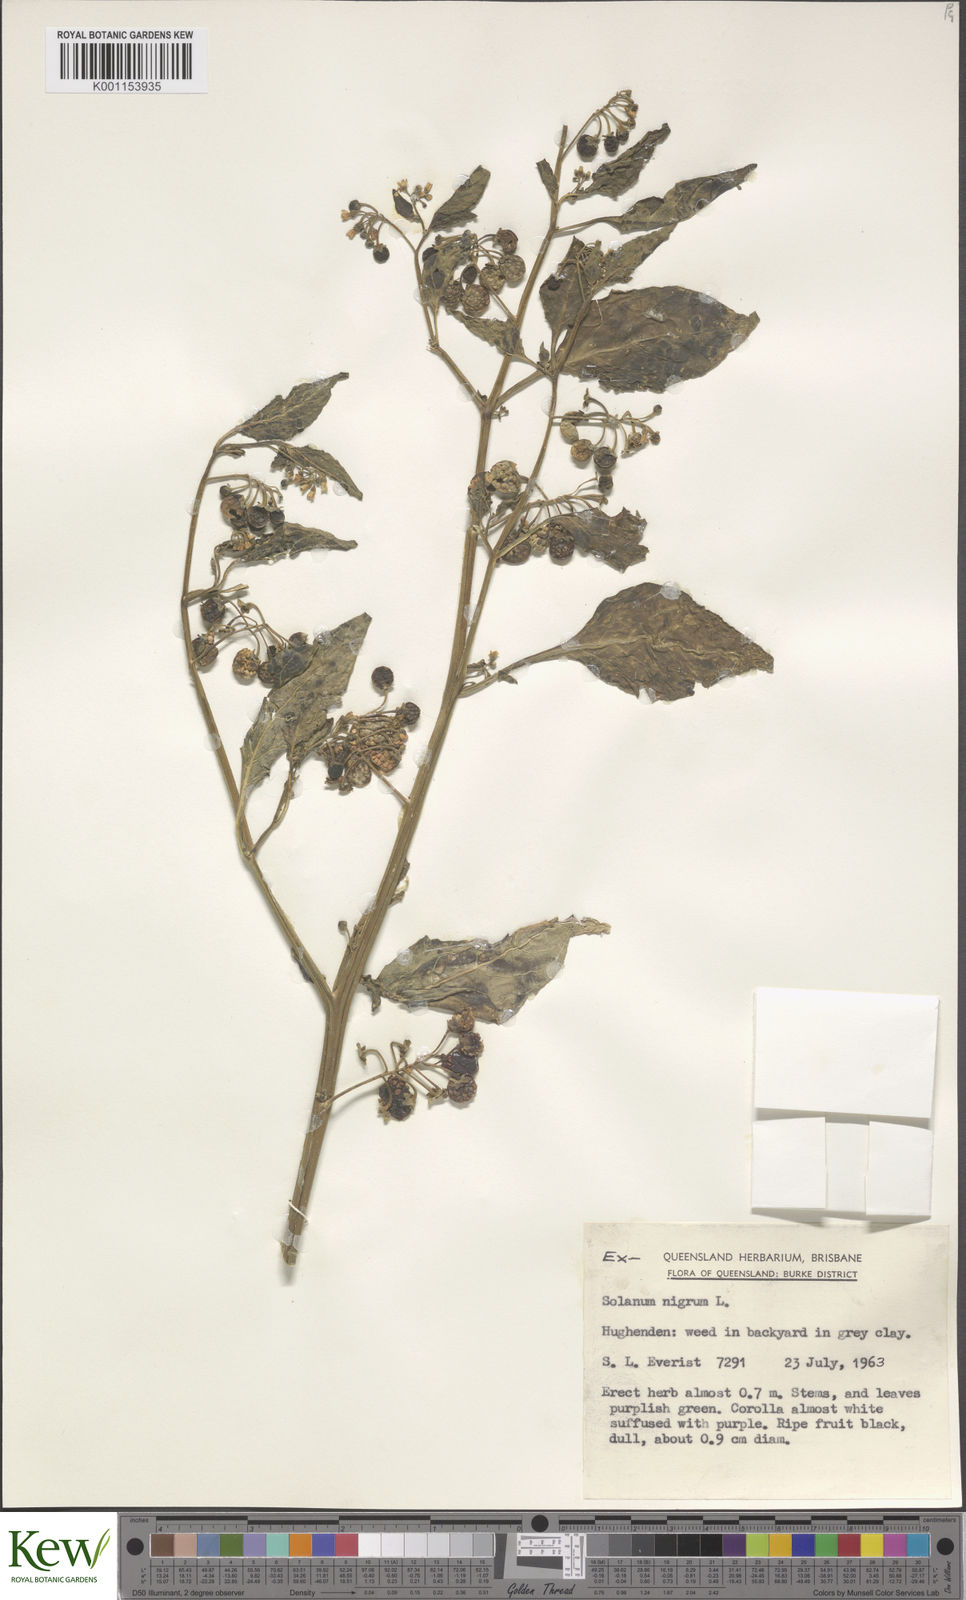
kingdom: Plantae
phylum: Tracheophyta
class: Magnoliopsida
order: Solanales
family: Solanaceae
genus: Solanum
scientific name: Solanum nigrum
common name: Black nightshade
